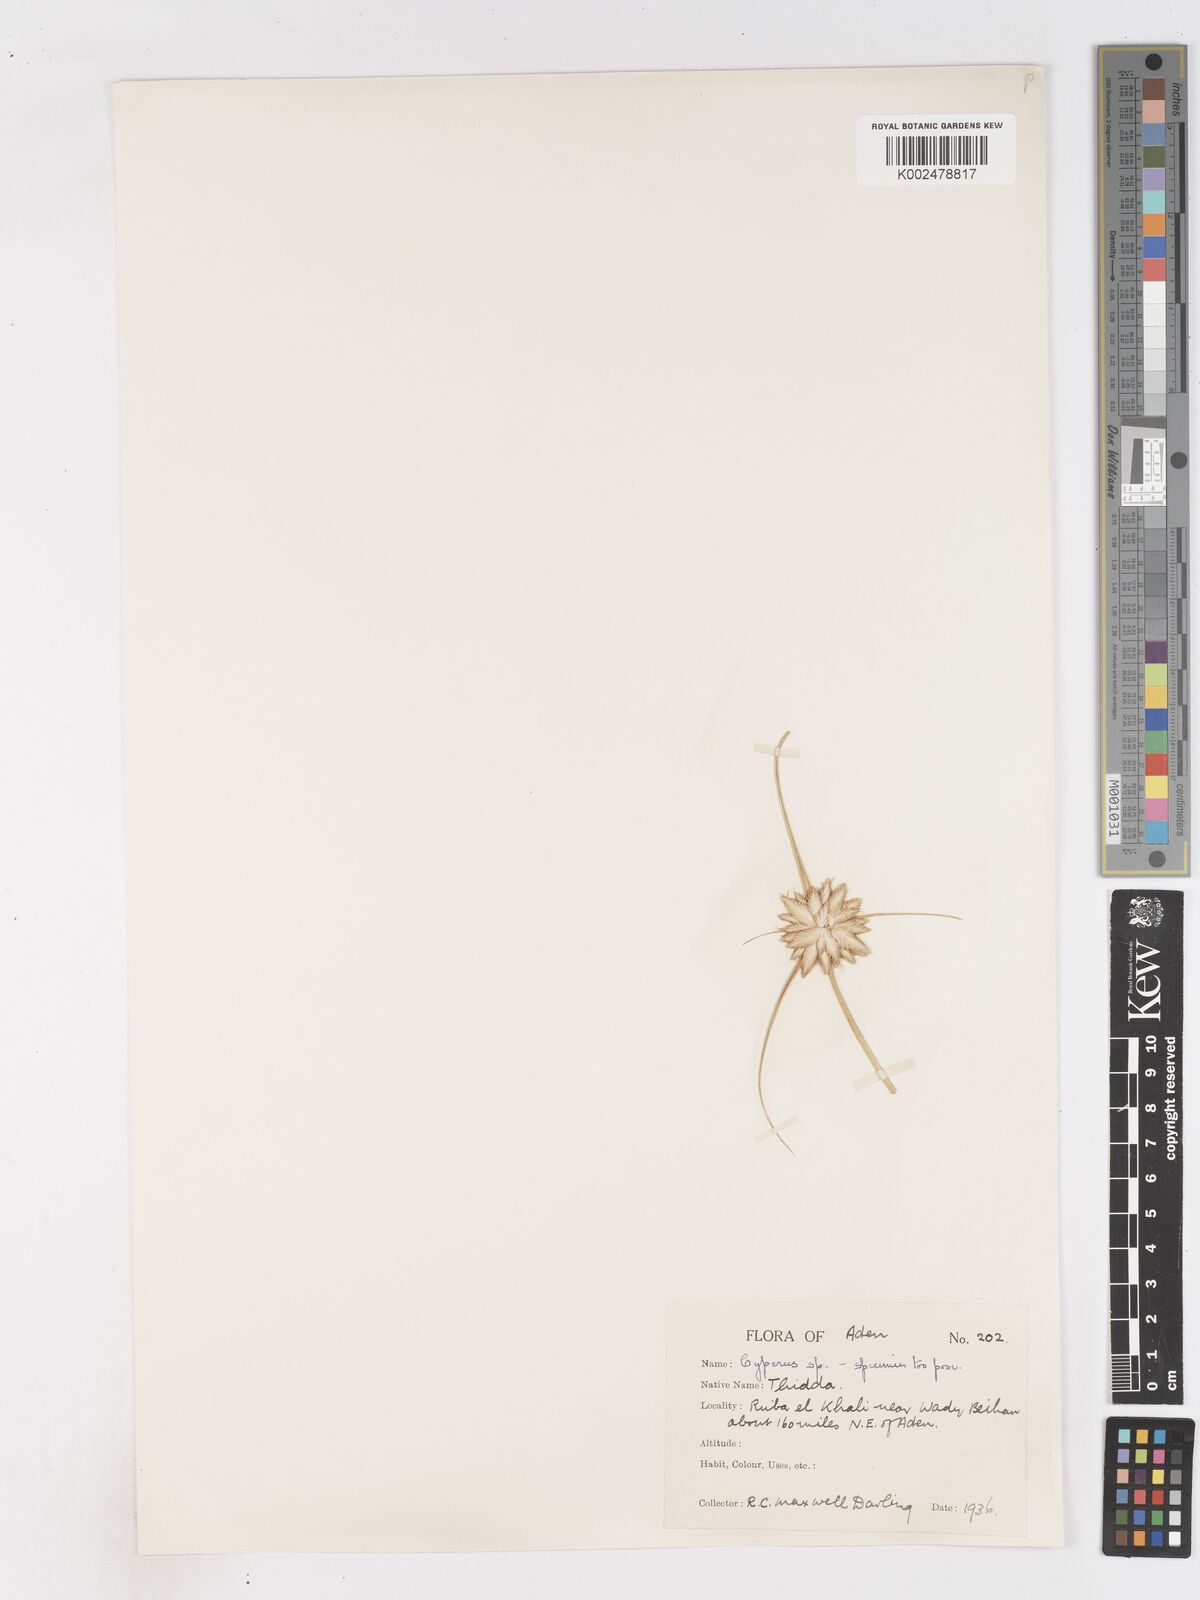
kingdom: Plantae
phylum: Tracheophyta
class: Liliopsida
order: Poales
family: Cyperaceae
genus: Cyperus
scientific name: Cyperus aucheri
